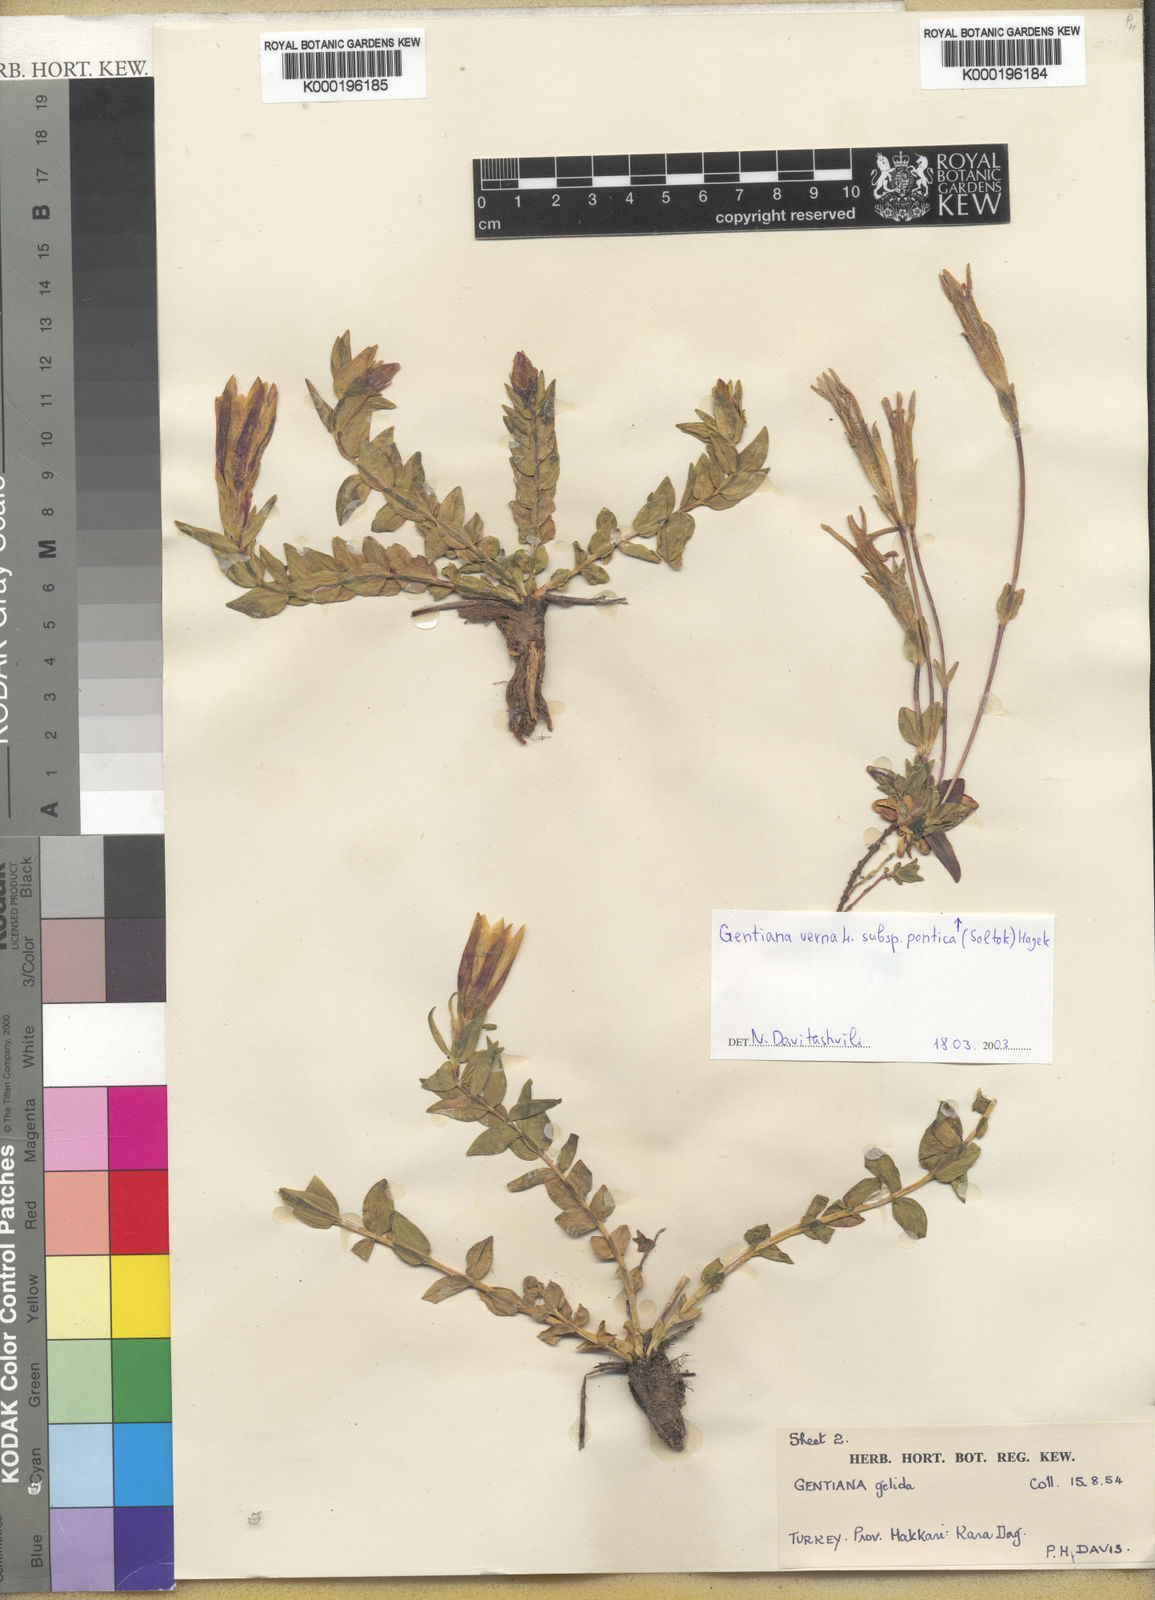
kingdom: Plantae
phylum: Tracheophyta
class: Magnoliopsida
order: Gentianales
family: Gentianaceae
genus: Gentiana
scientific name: Gentiana verna
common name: Spring gentian
